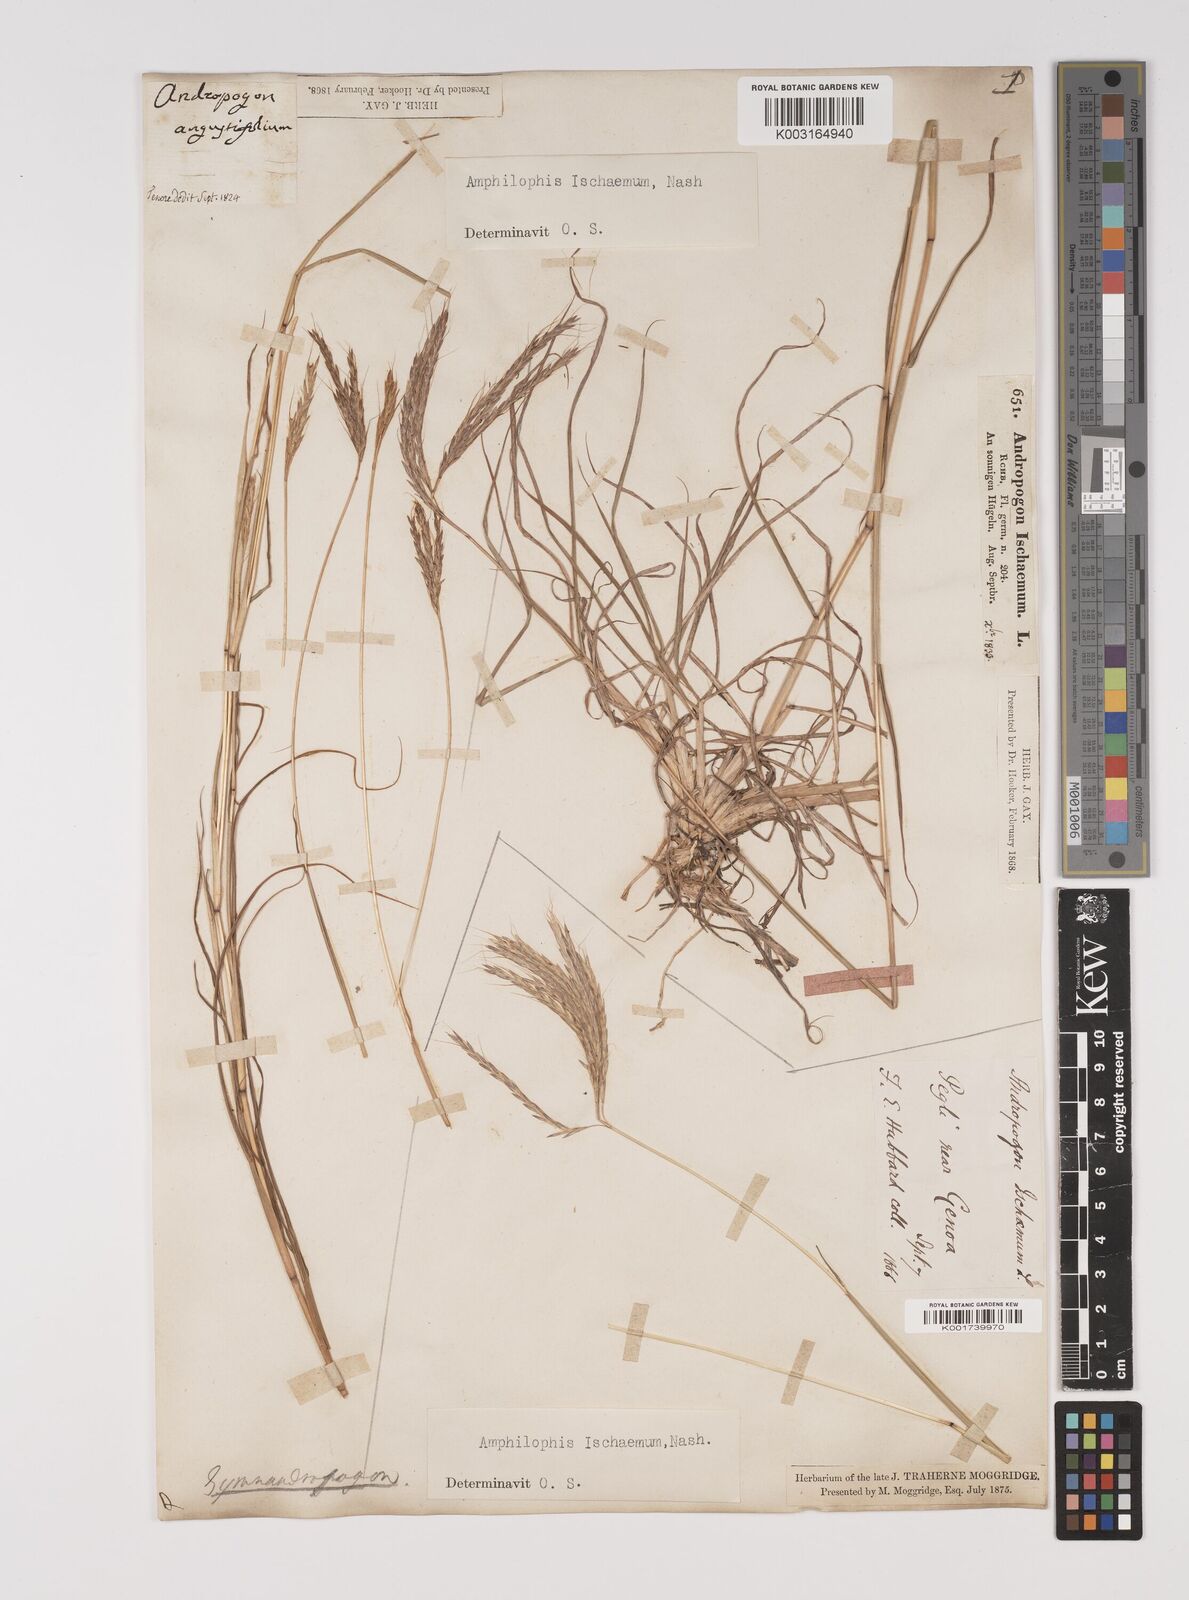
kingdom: Plantae
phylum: Tracheophyta
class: Liliopsida
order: Poales
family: Poaceae
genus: Bothriochloa
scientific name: Bothriochloa ischaemum
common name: Yellow bluestem
